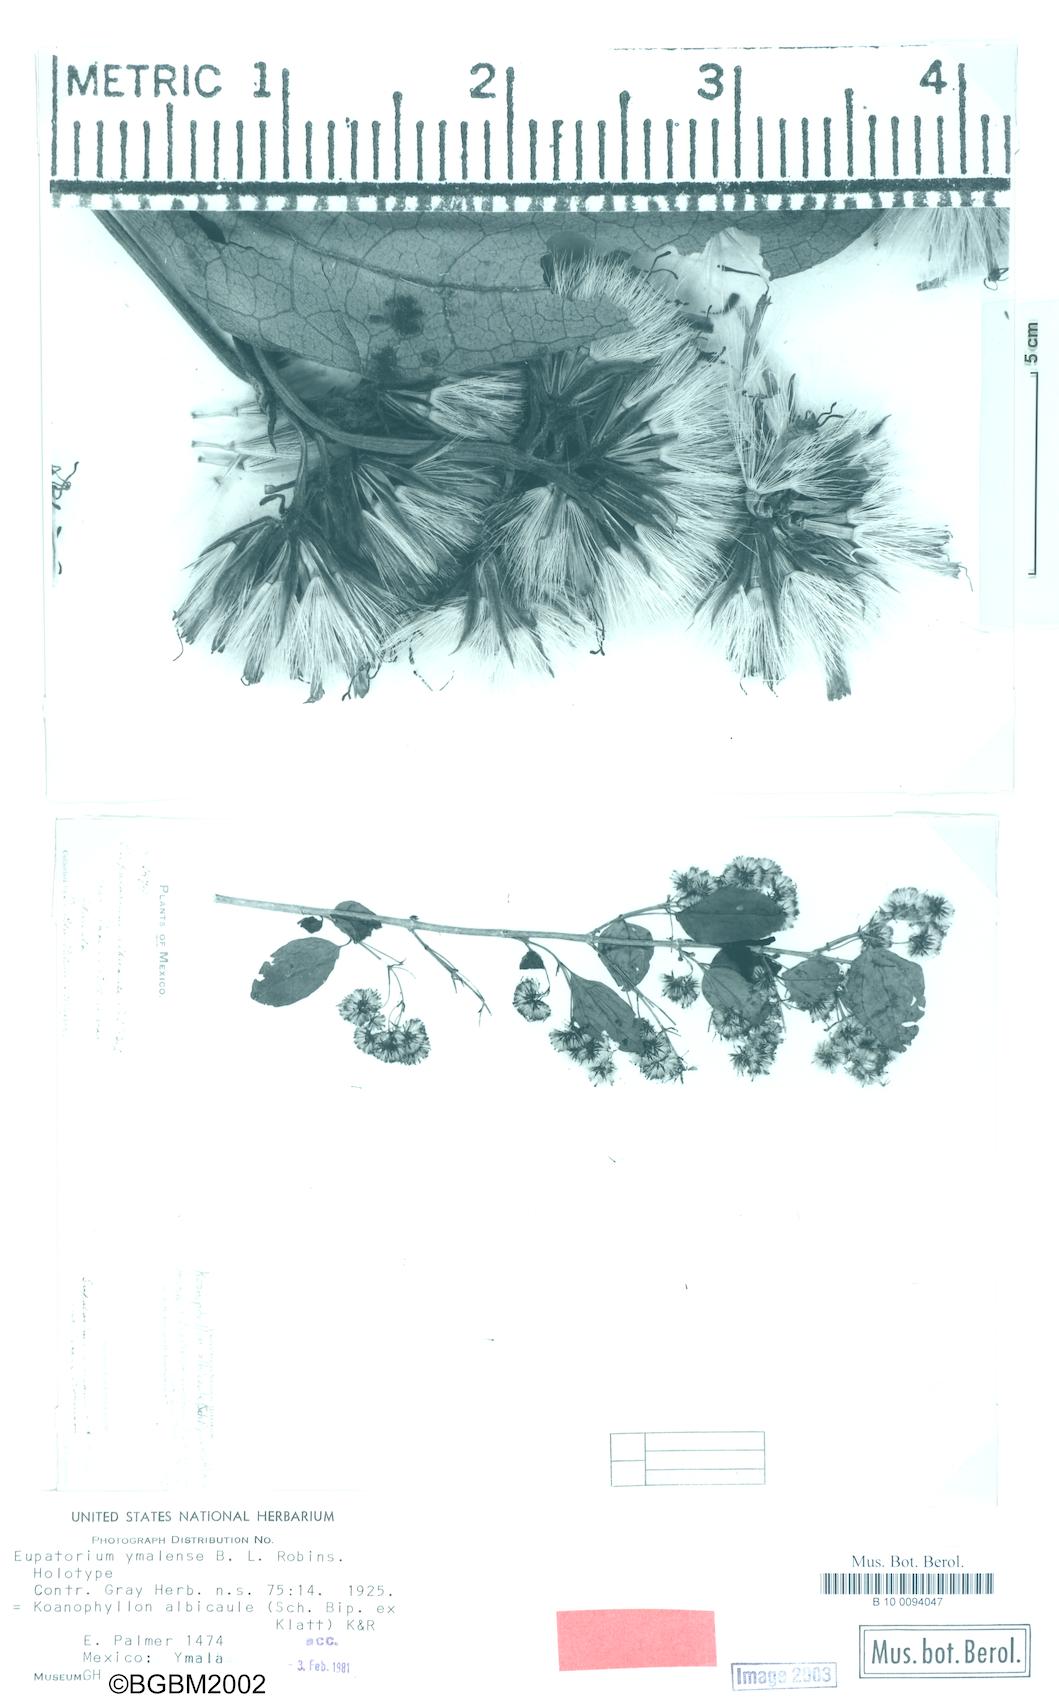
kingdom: Plantae
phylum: Tracheophyta
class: Magnoliopsida
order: Asterales
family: Asteraceae
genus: Koanophyllon
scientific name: Koanophyllon albicaule
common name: Old women's walking stick
